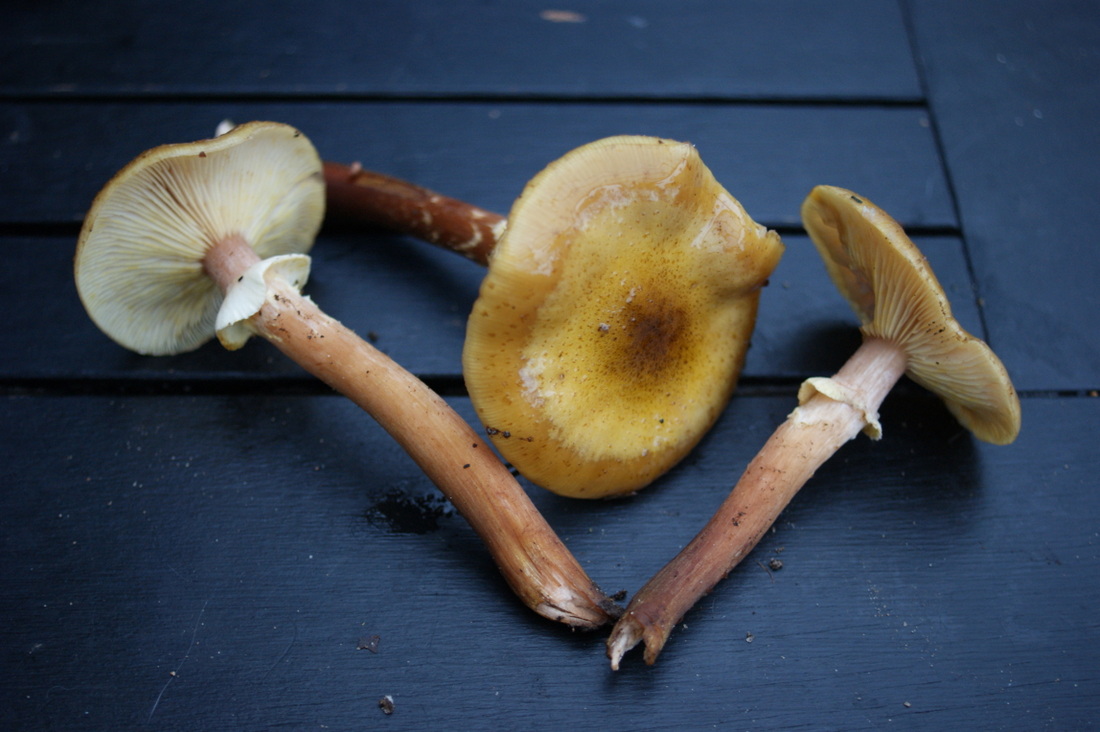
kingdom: Fungi
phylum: Basidiomycota
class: Agaricomycetes
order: Agaricales
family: Physalacriaceae
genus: Armillaria
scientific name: Armillaria mellea
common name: ægte honningsvamp
